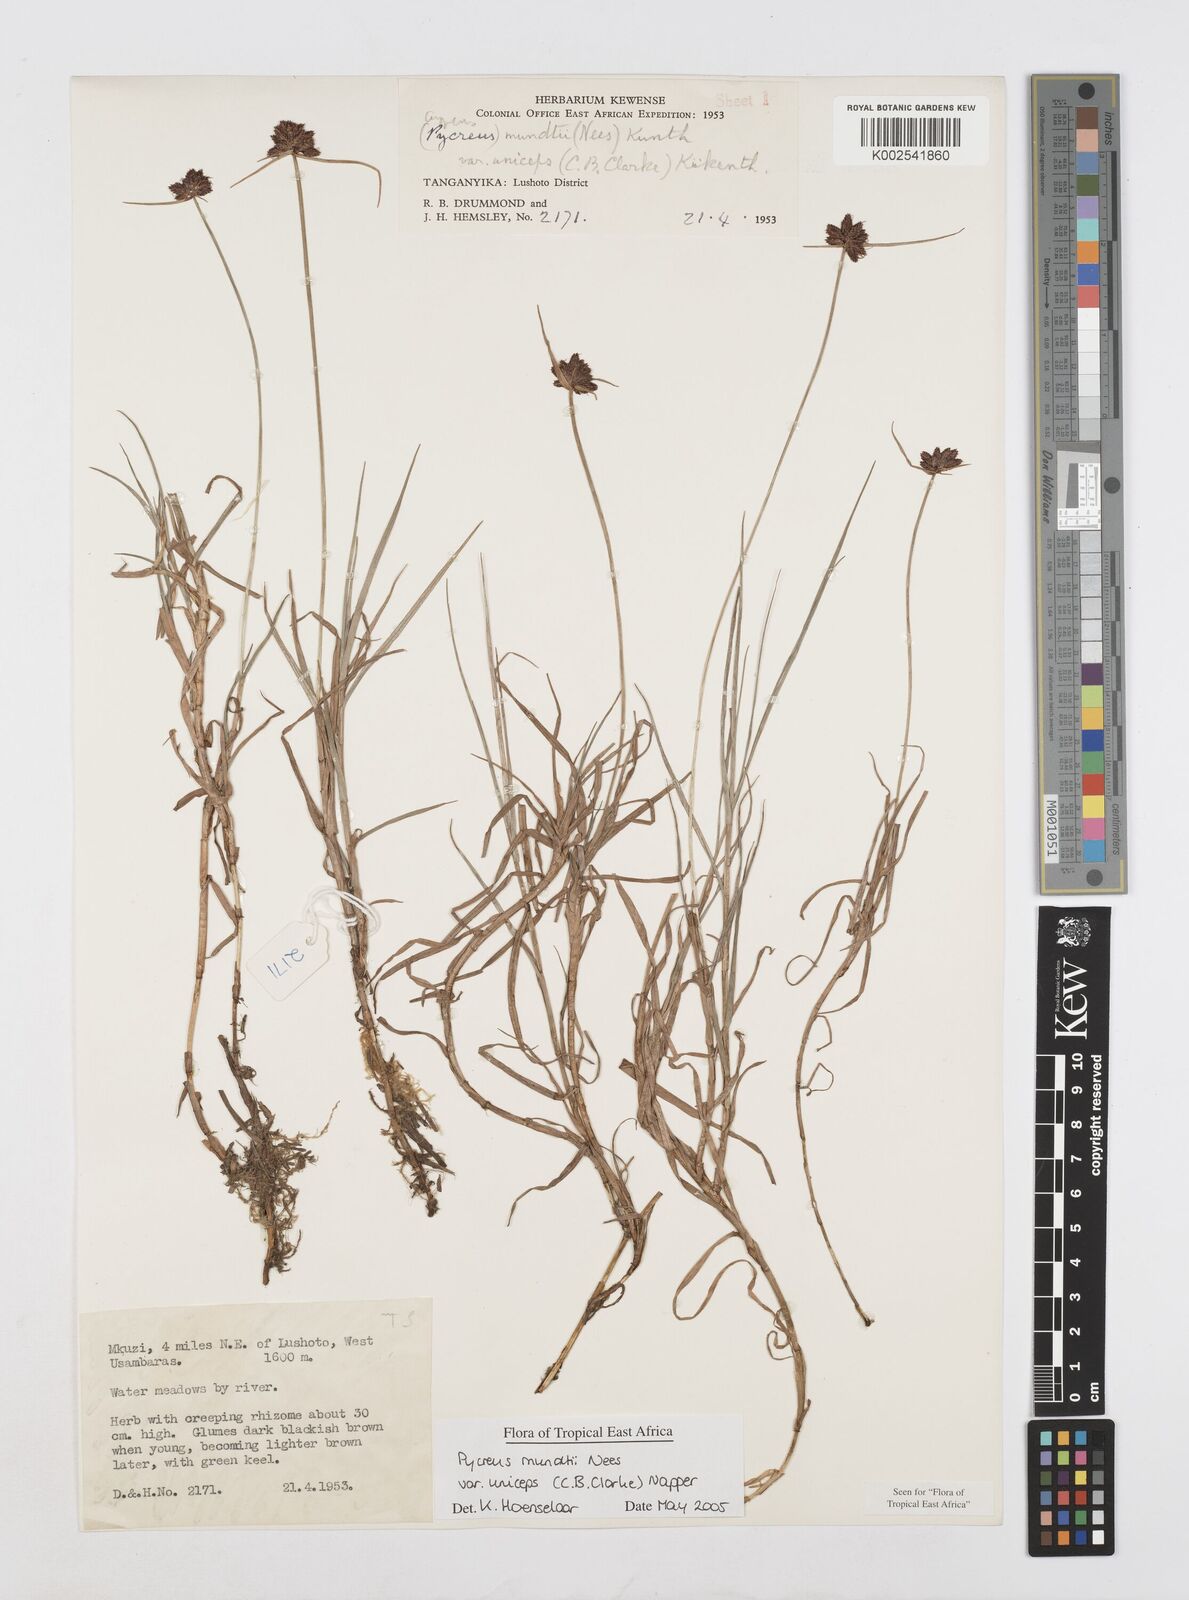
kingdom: Plantae
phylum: Tracheophyta
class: Liliopsida
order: Poales
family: Cyperaceae
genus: Cyperus
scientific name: Cyperus mundii
